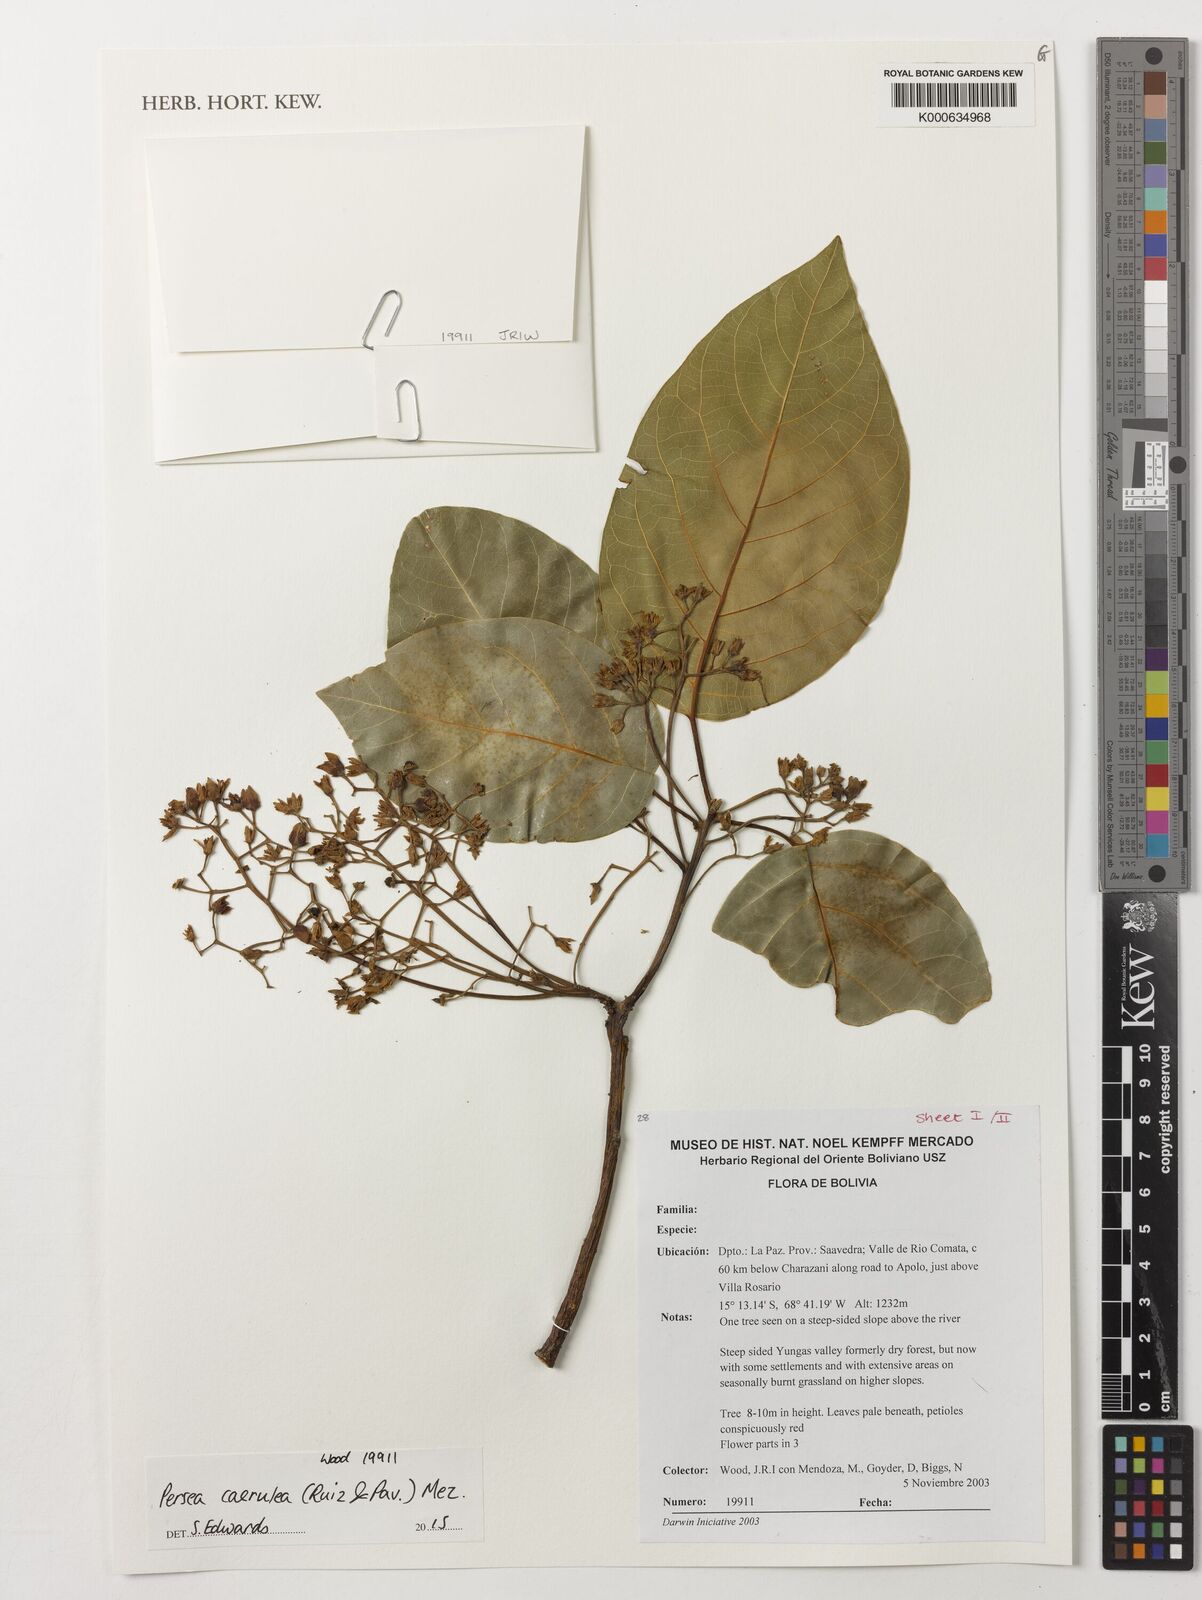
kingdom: Plantae
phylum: Tracheophyta
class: Magnoliopsida
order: Laurales
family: Lauraceae
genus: Persea
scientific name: Persea caerulea
